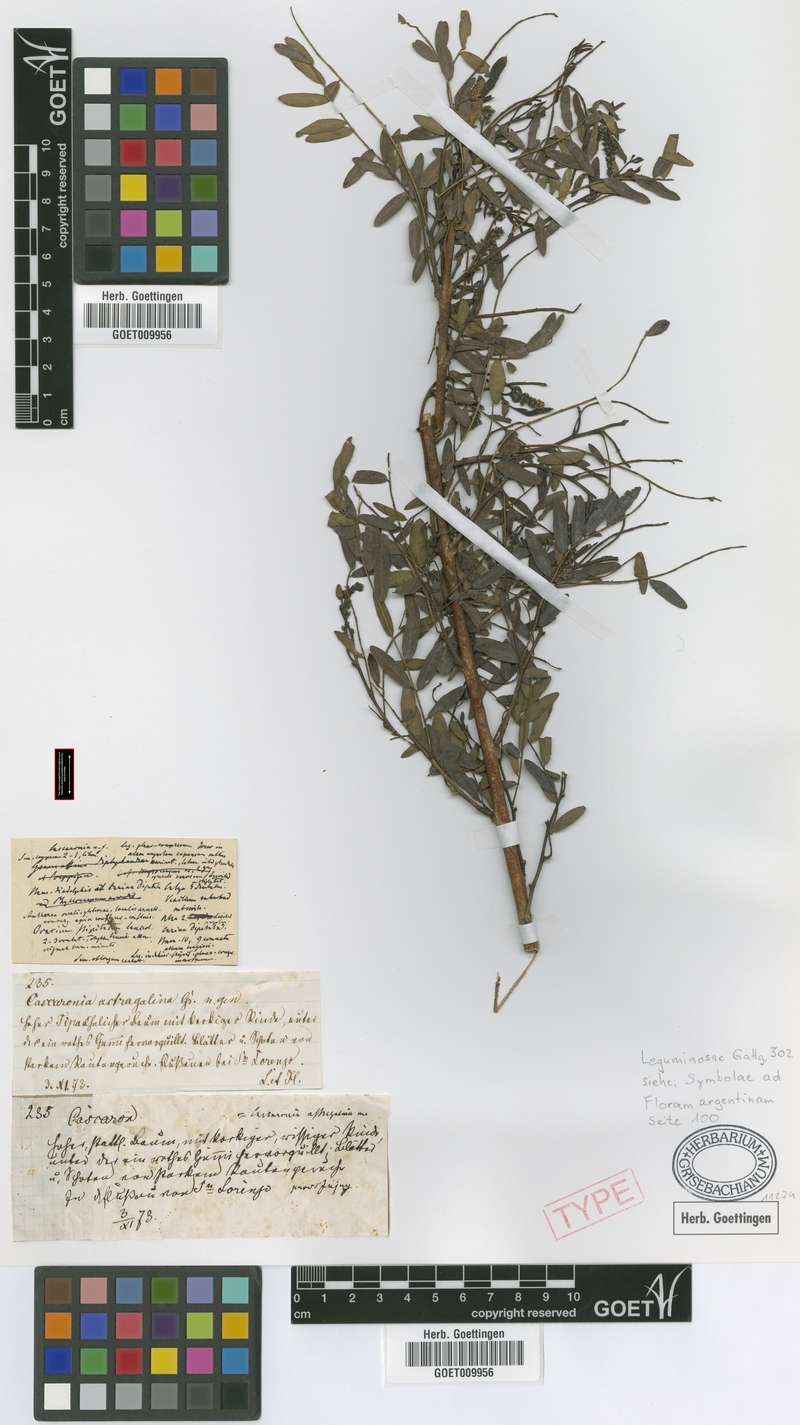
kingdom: Plantae
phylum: Tracheophyta
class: Magnoliopsida
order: Fabales
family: Fabaceae
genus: Cascaronia
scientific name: Cascaronia astragalina
